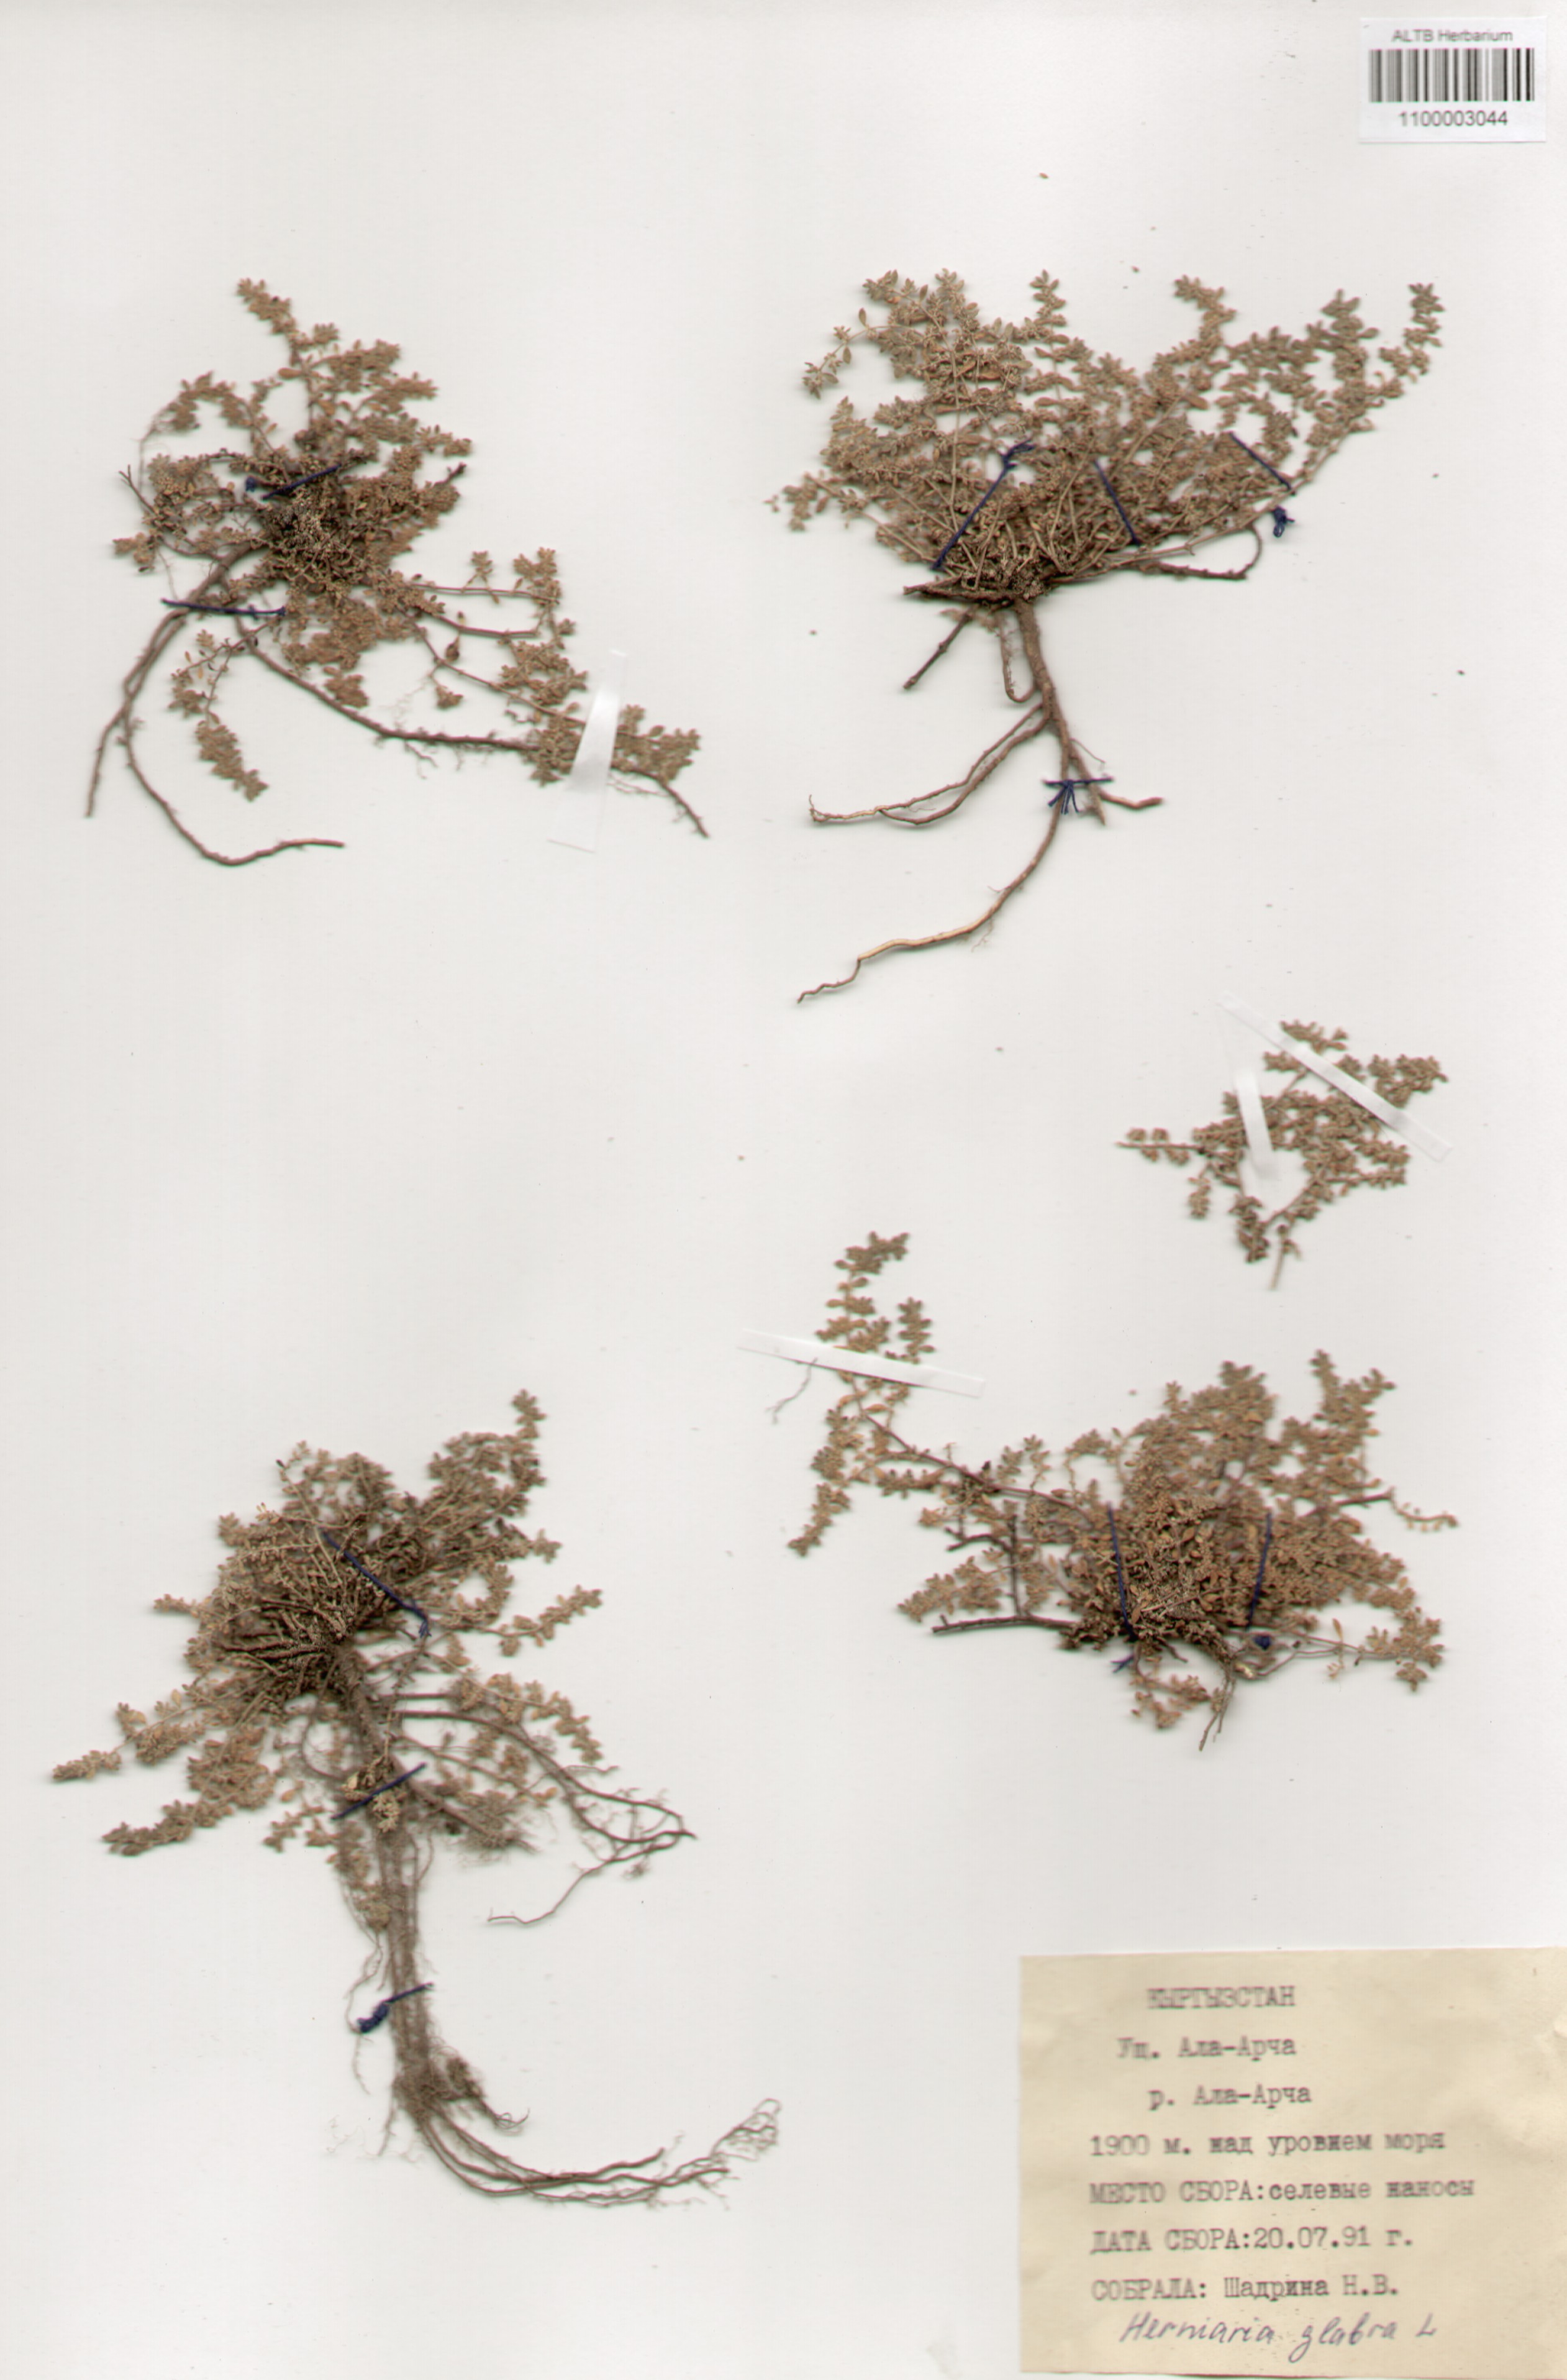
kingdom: Plantae
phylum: Tracheophyta
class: Magnoliopsida
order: Caryophyllales
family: Caryophyllaceae
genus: Herniaria
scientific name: Herniaria glabra
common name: Smooth rupturewort
